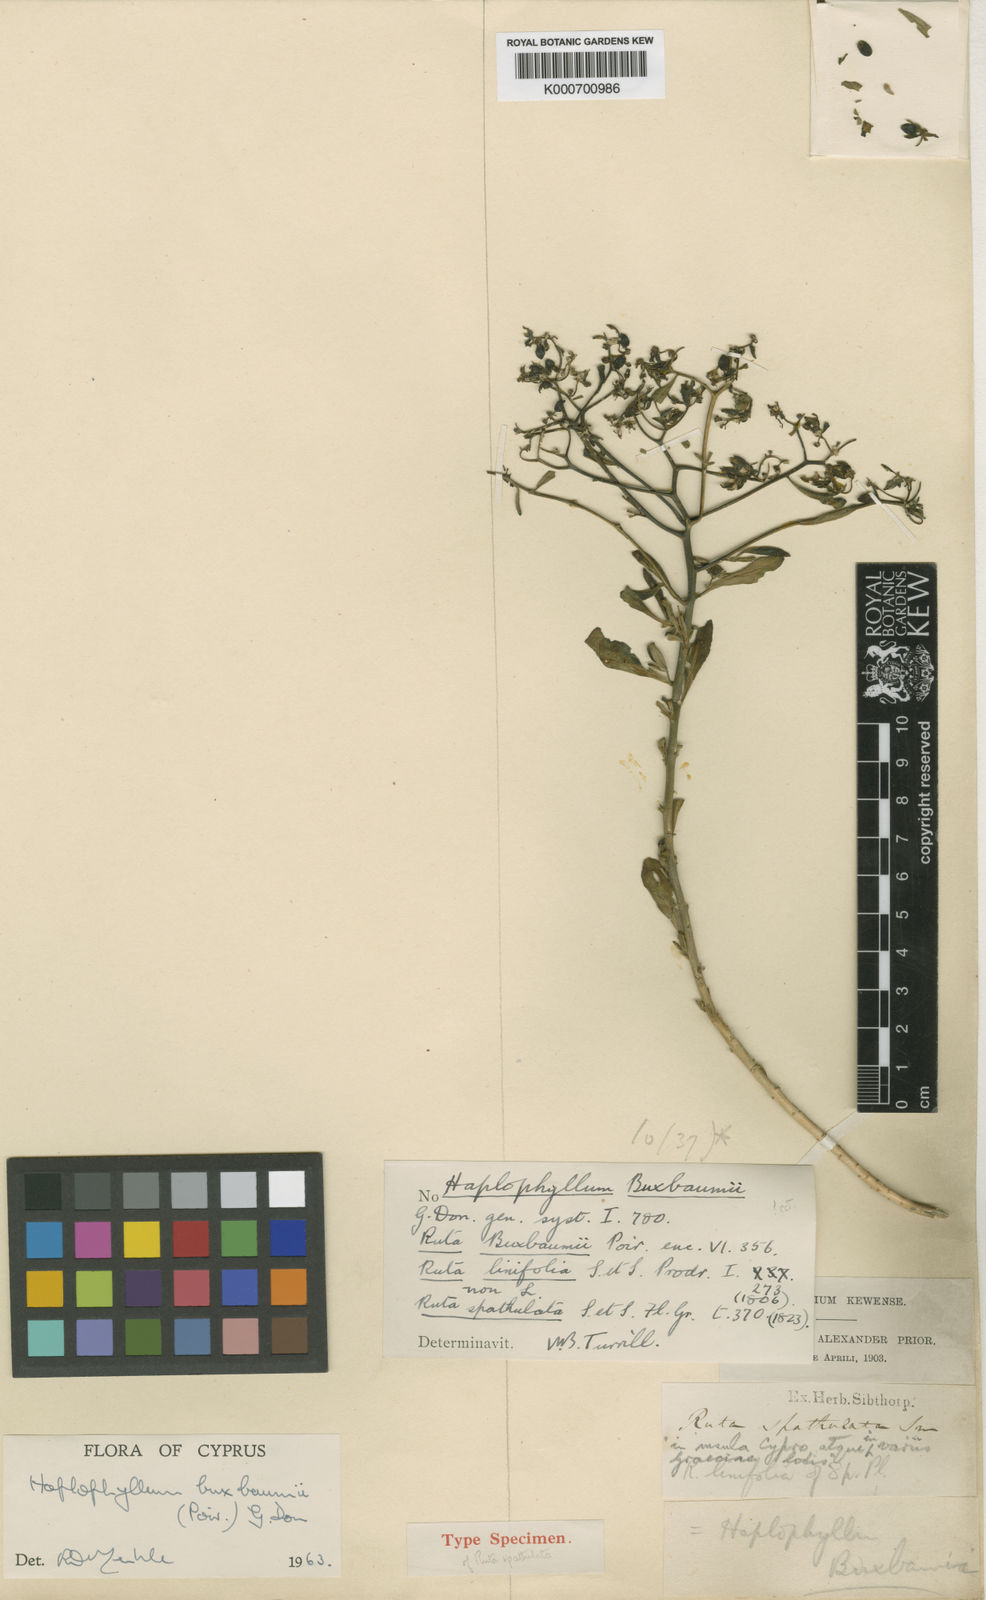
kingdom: Plantae
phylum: Tracheophyta
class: Magnoliopsida
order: Sapindales
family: Rutaceae
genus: Haplophyllum
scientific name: Haplophyllum buxbaumii
